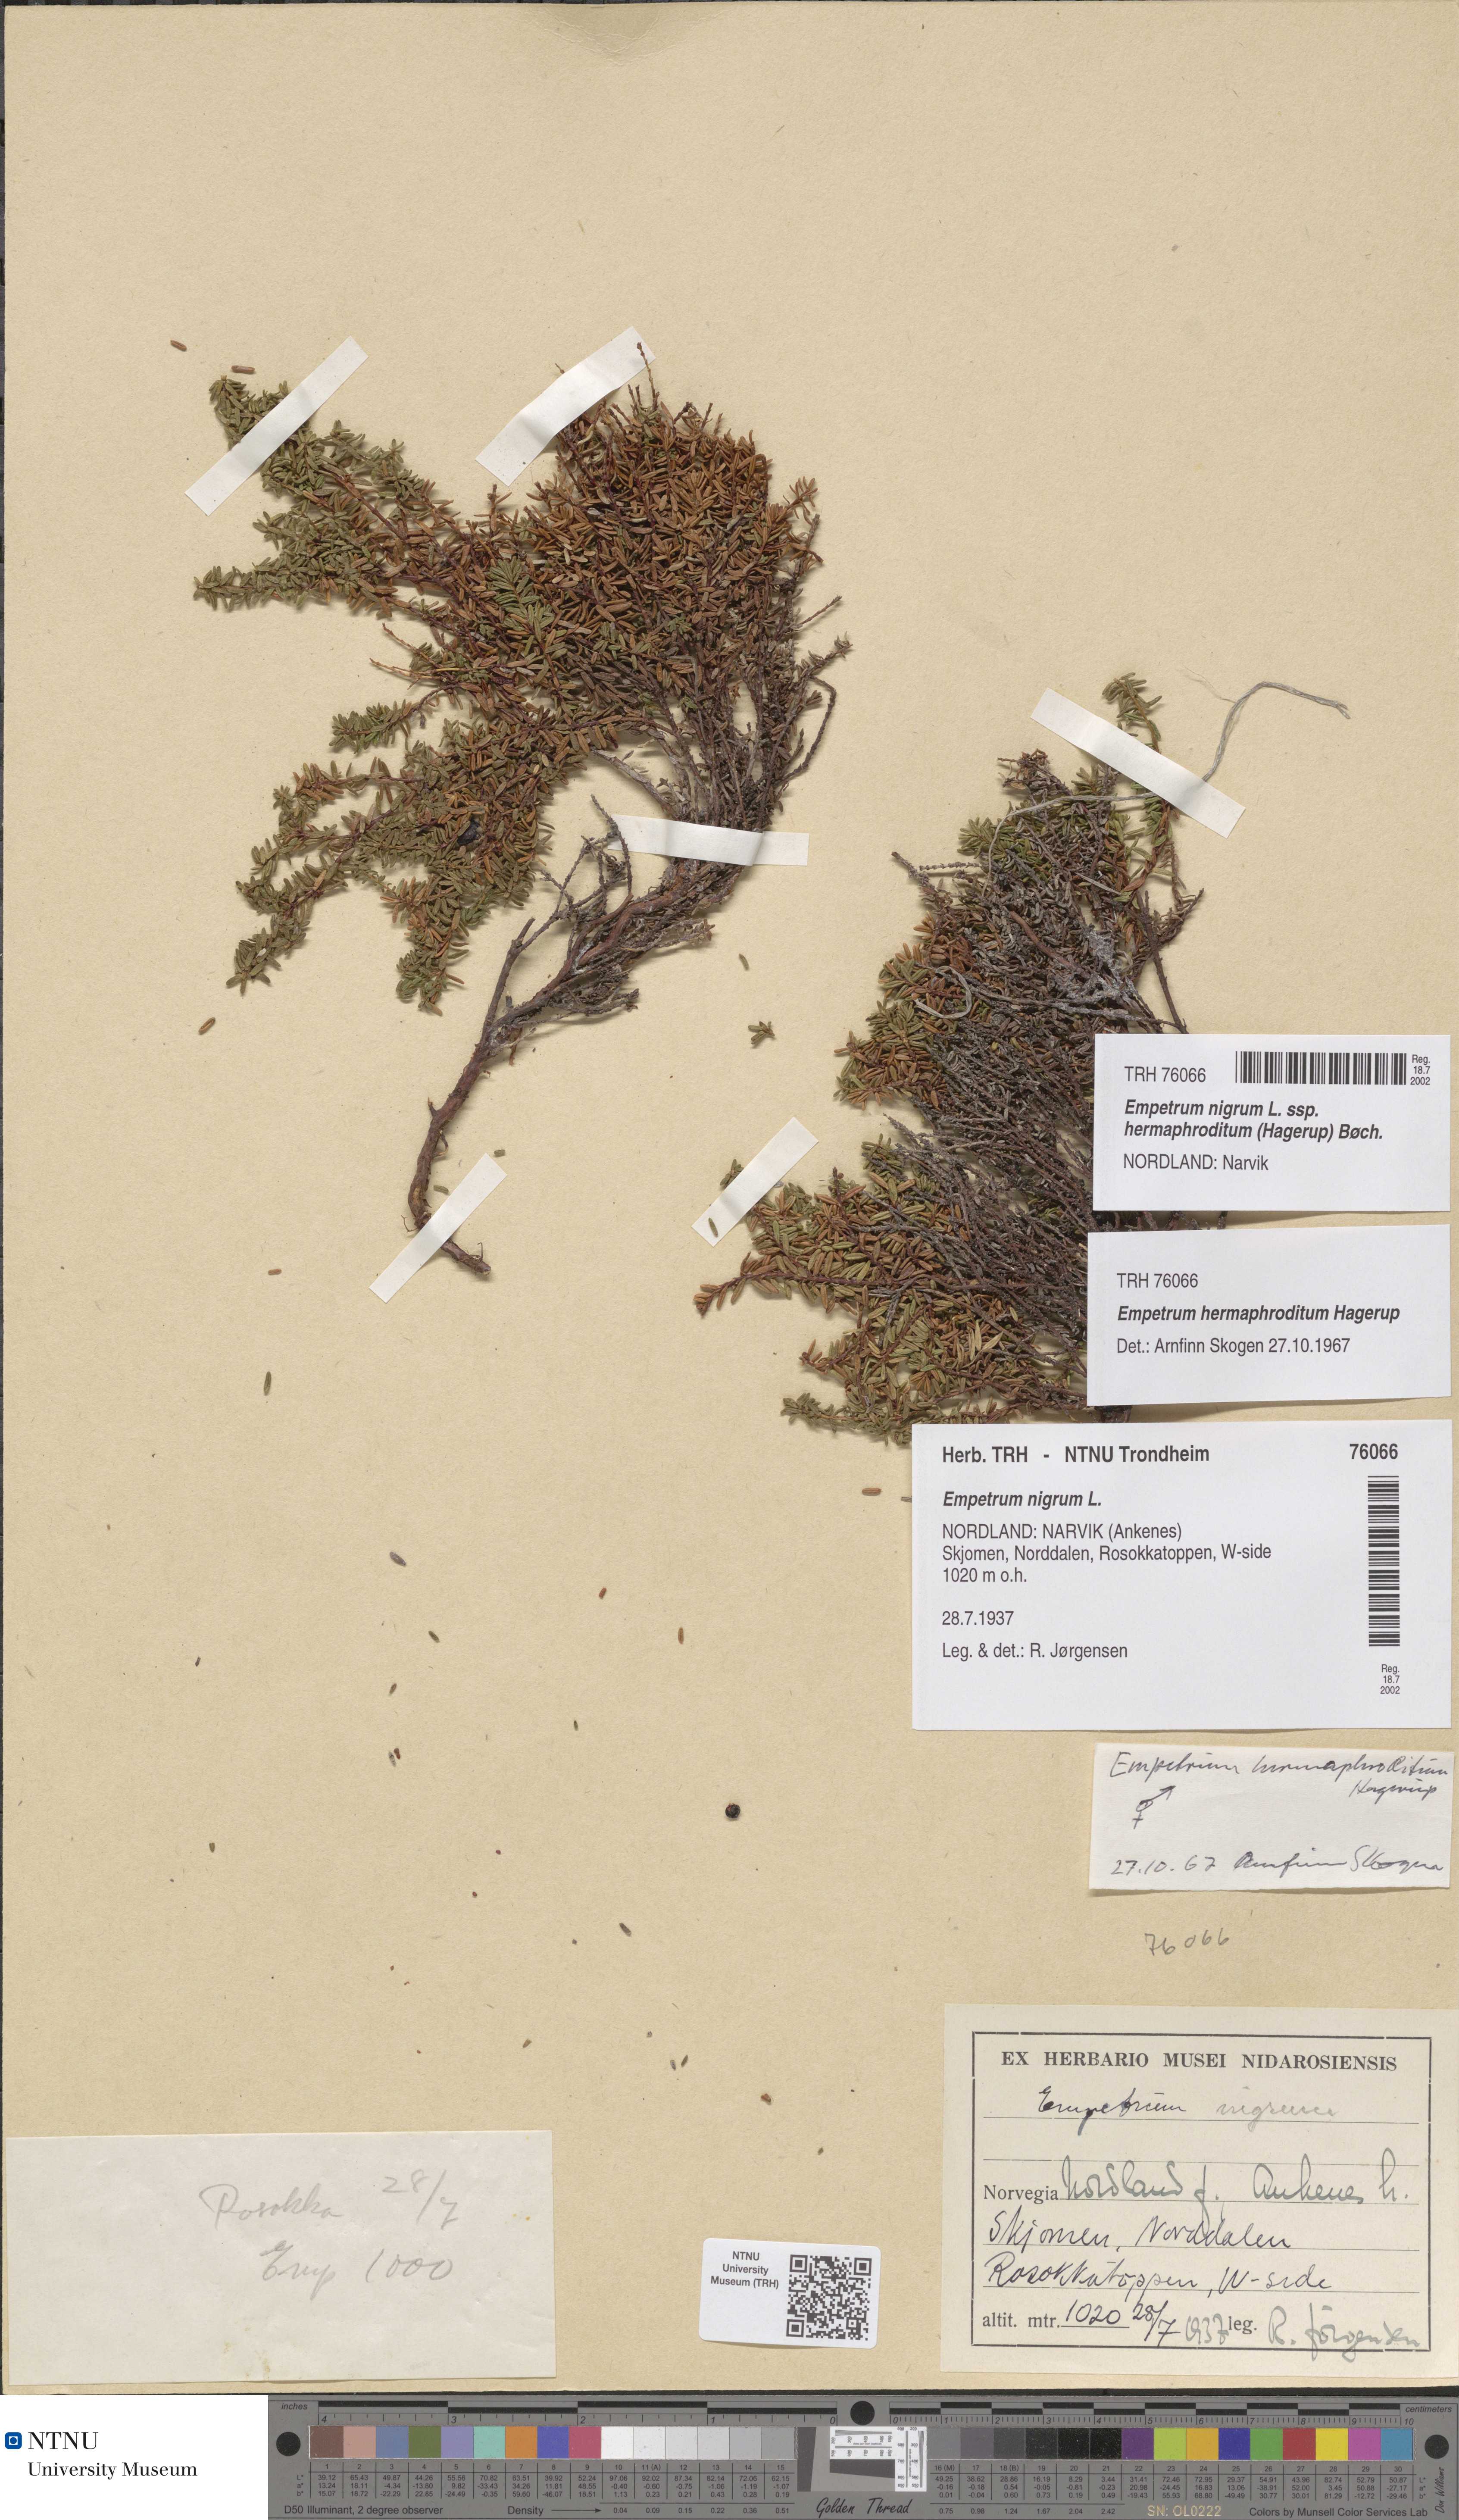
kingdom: Plantae
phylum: Tracheophyta
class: Magnoliopsida
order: Ericales
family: Ericaceae
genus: Empetrum
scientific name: Empetrum hermaphroditum
